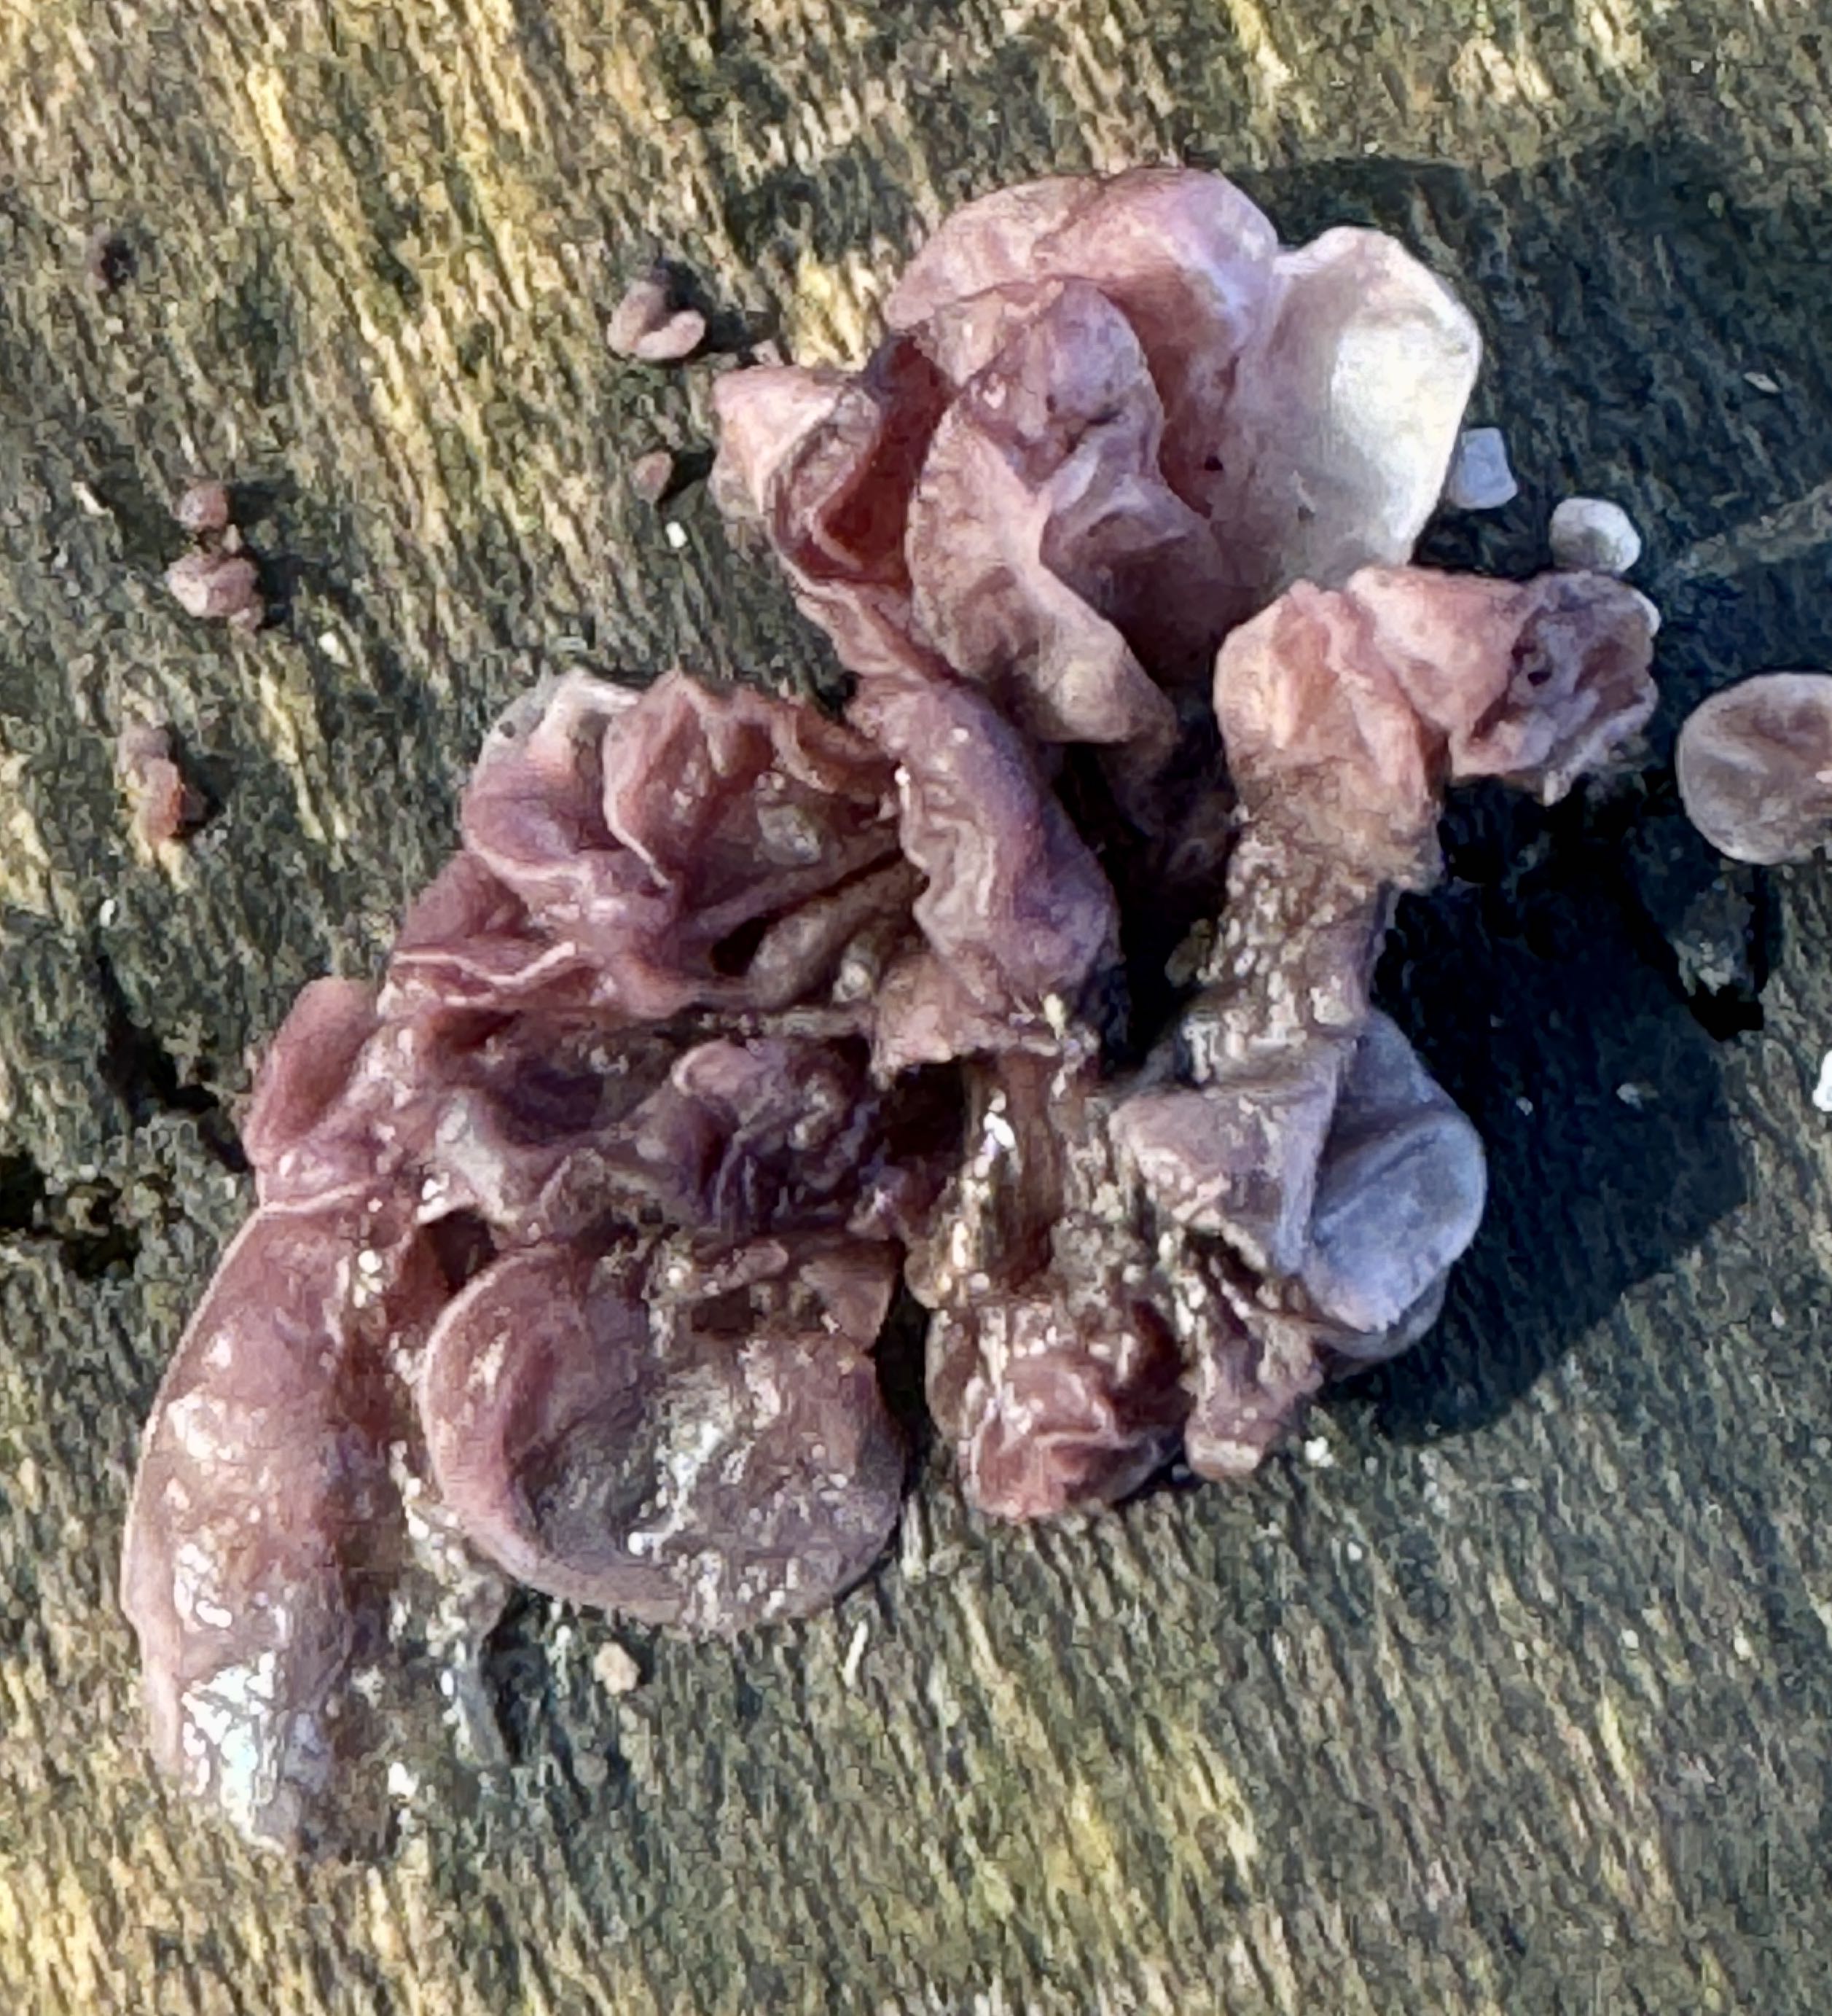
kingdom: Fungi
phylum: Ascomycota
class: Leotiomycetes
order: Helotiales
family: Gelatinodiscaceae
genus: Ascocoryne
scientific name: Ascocoryne sarcoides
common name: rødlilla sejskive
